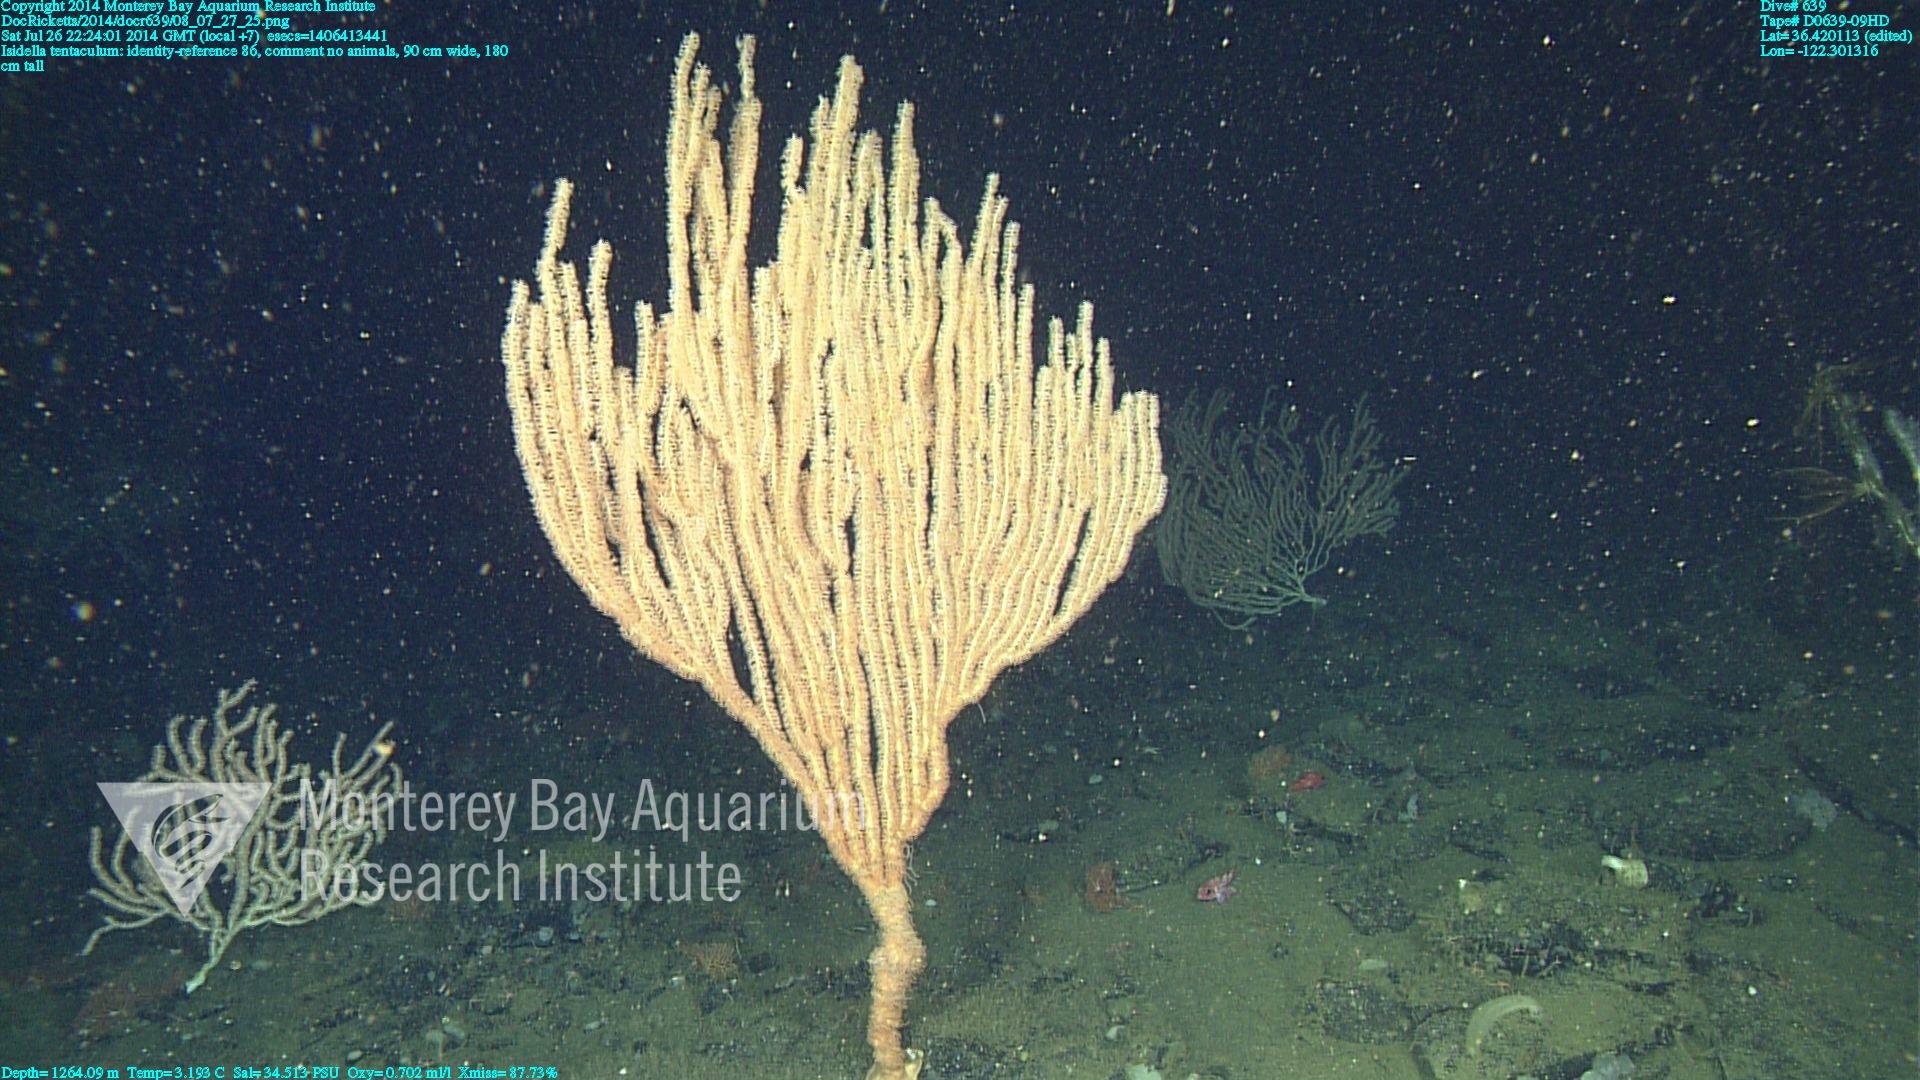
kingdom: Animalia
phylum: Cnidaria
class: Anthozoa
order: Scleralcyonacea
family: Keratoisididae
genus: Isidella
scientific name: Isidella tentaculum
